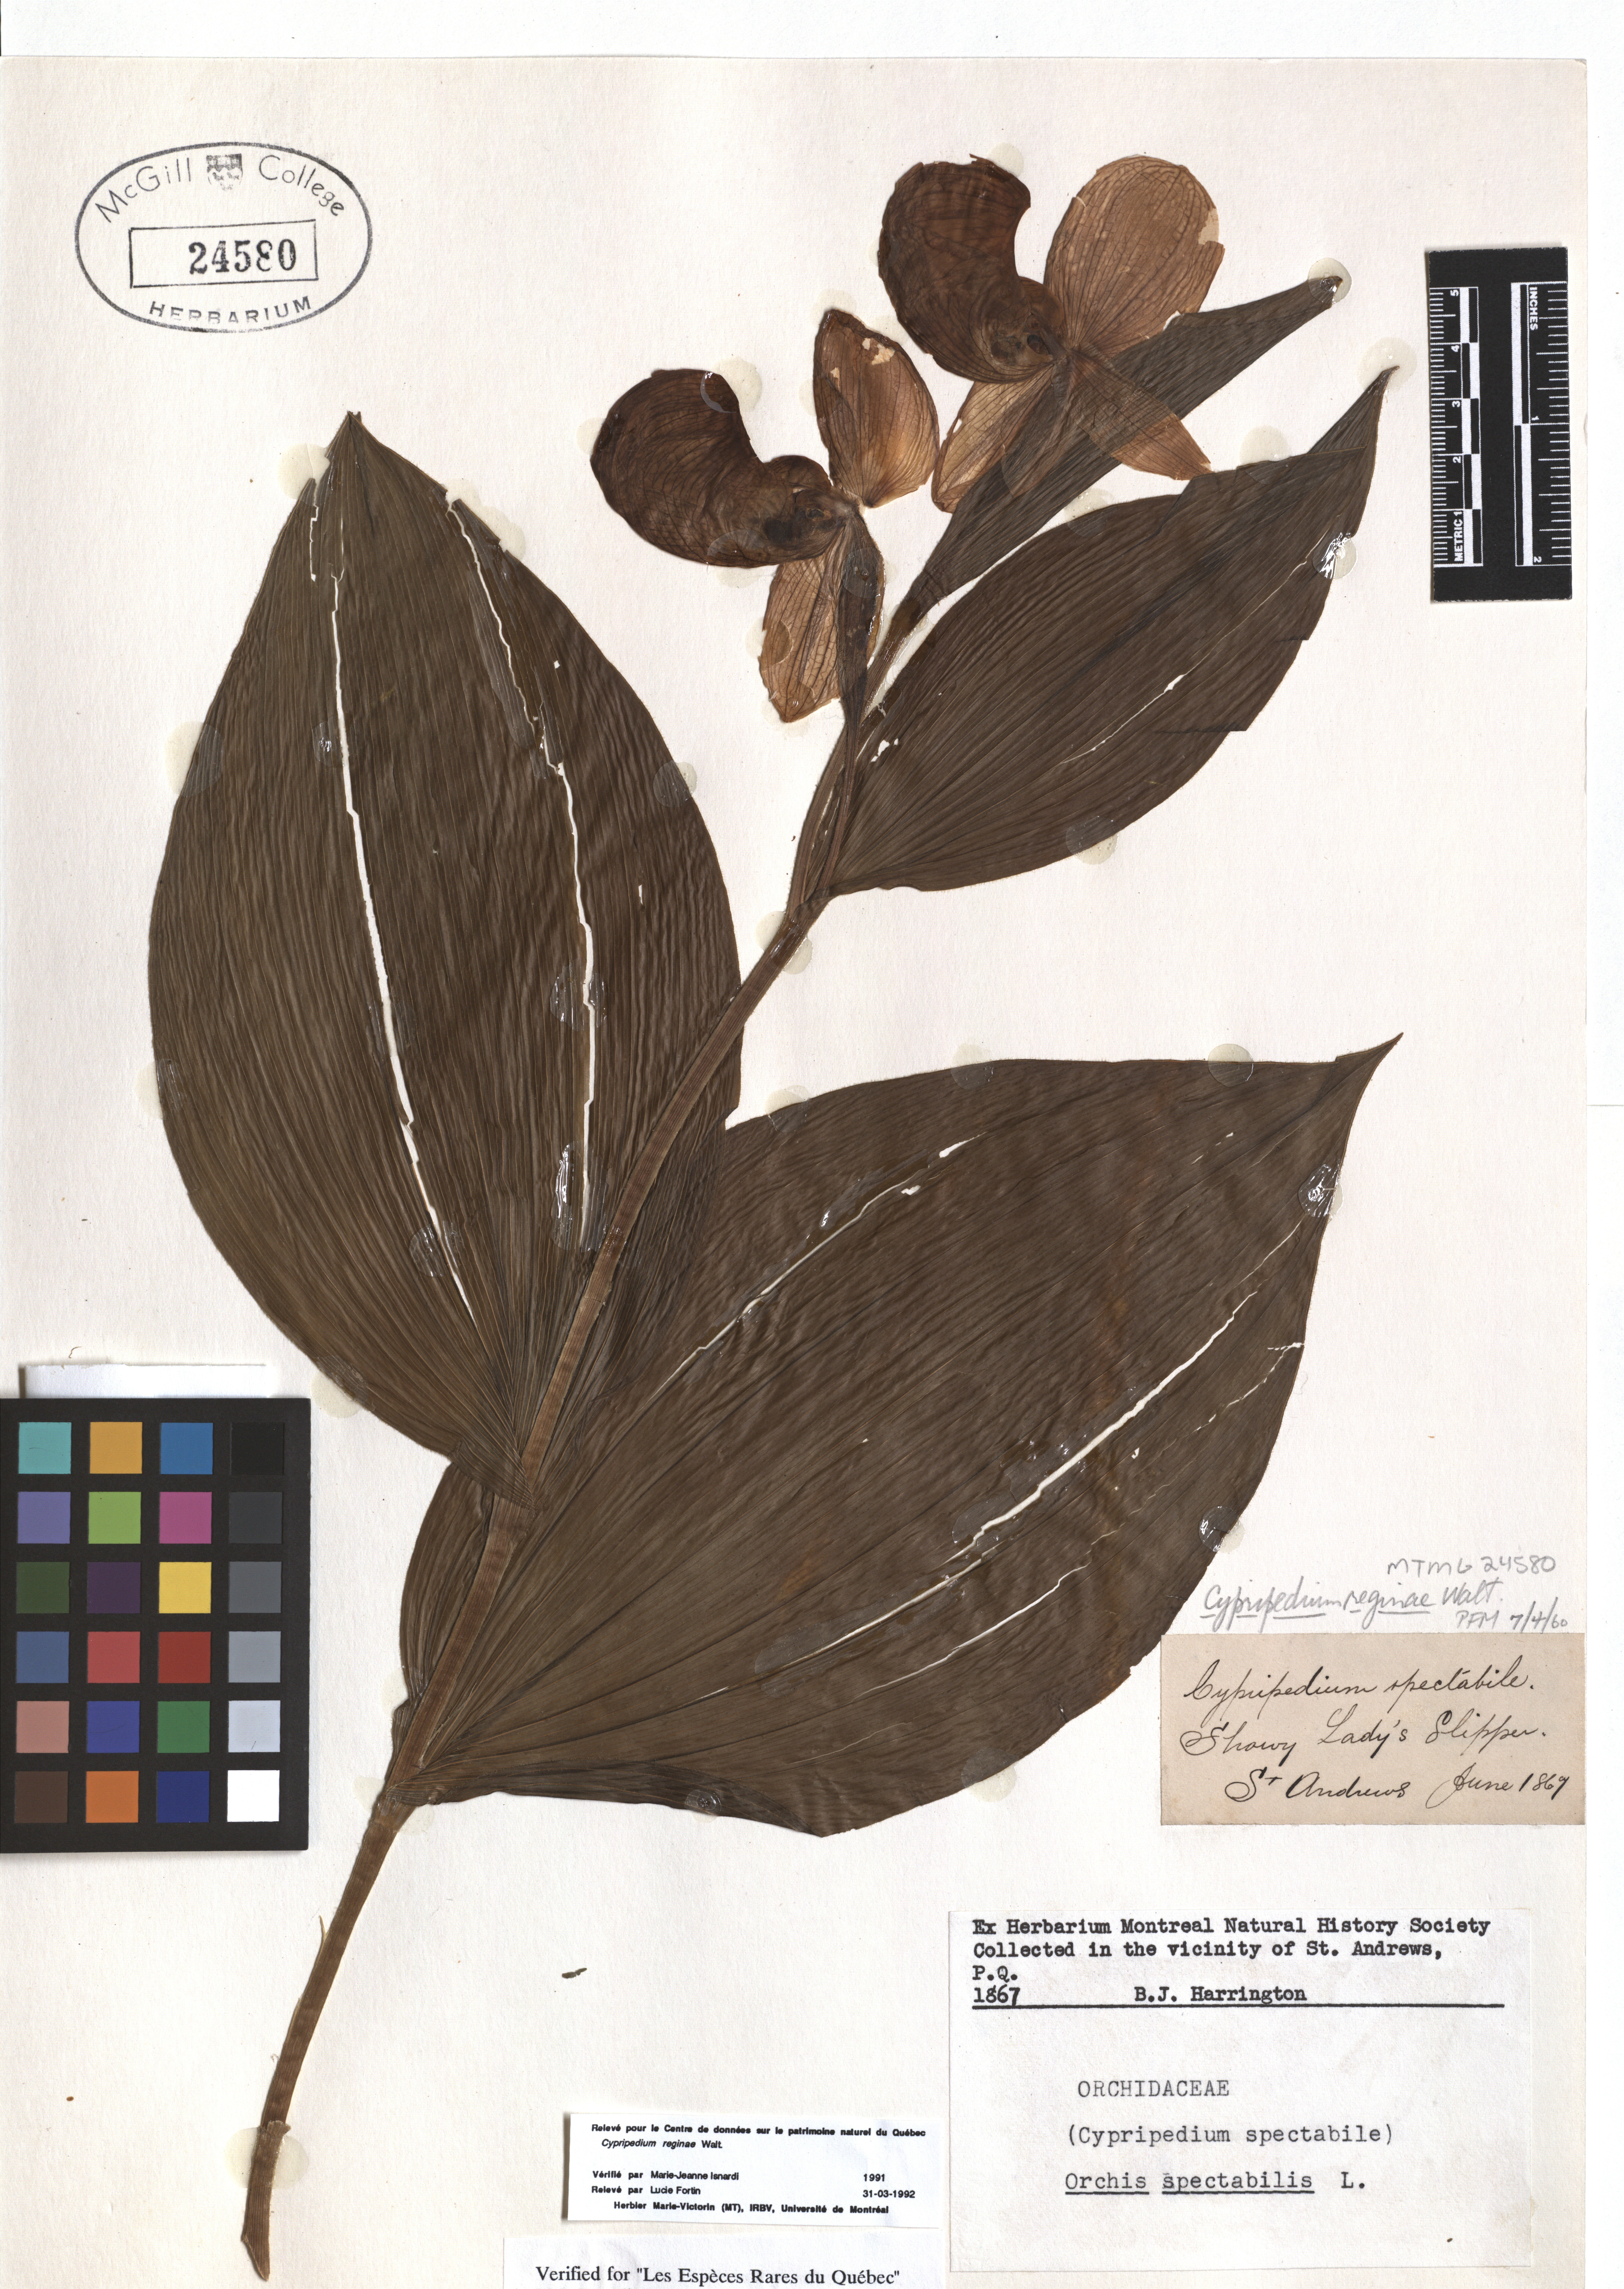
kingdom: Plantae
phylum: Tracheophyta
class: Liliopsida
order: Asparagales
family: Orchidaceae
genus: Cypripedium
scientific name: Cypripedium reginae
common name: Queen lady's-slipper
